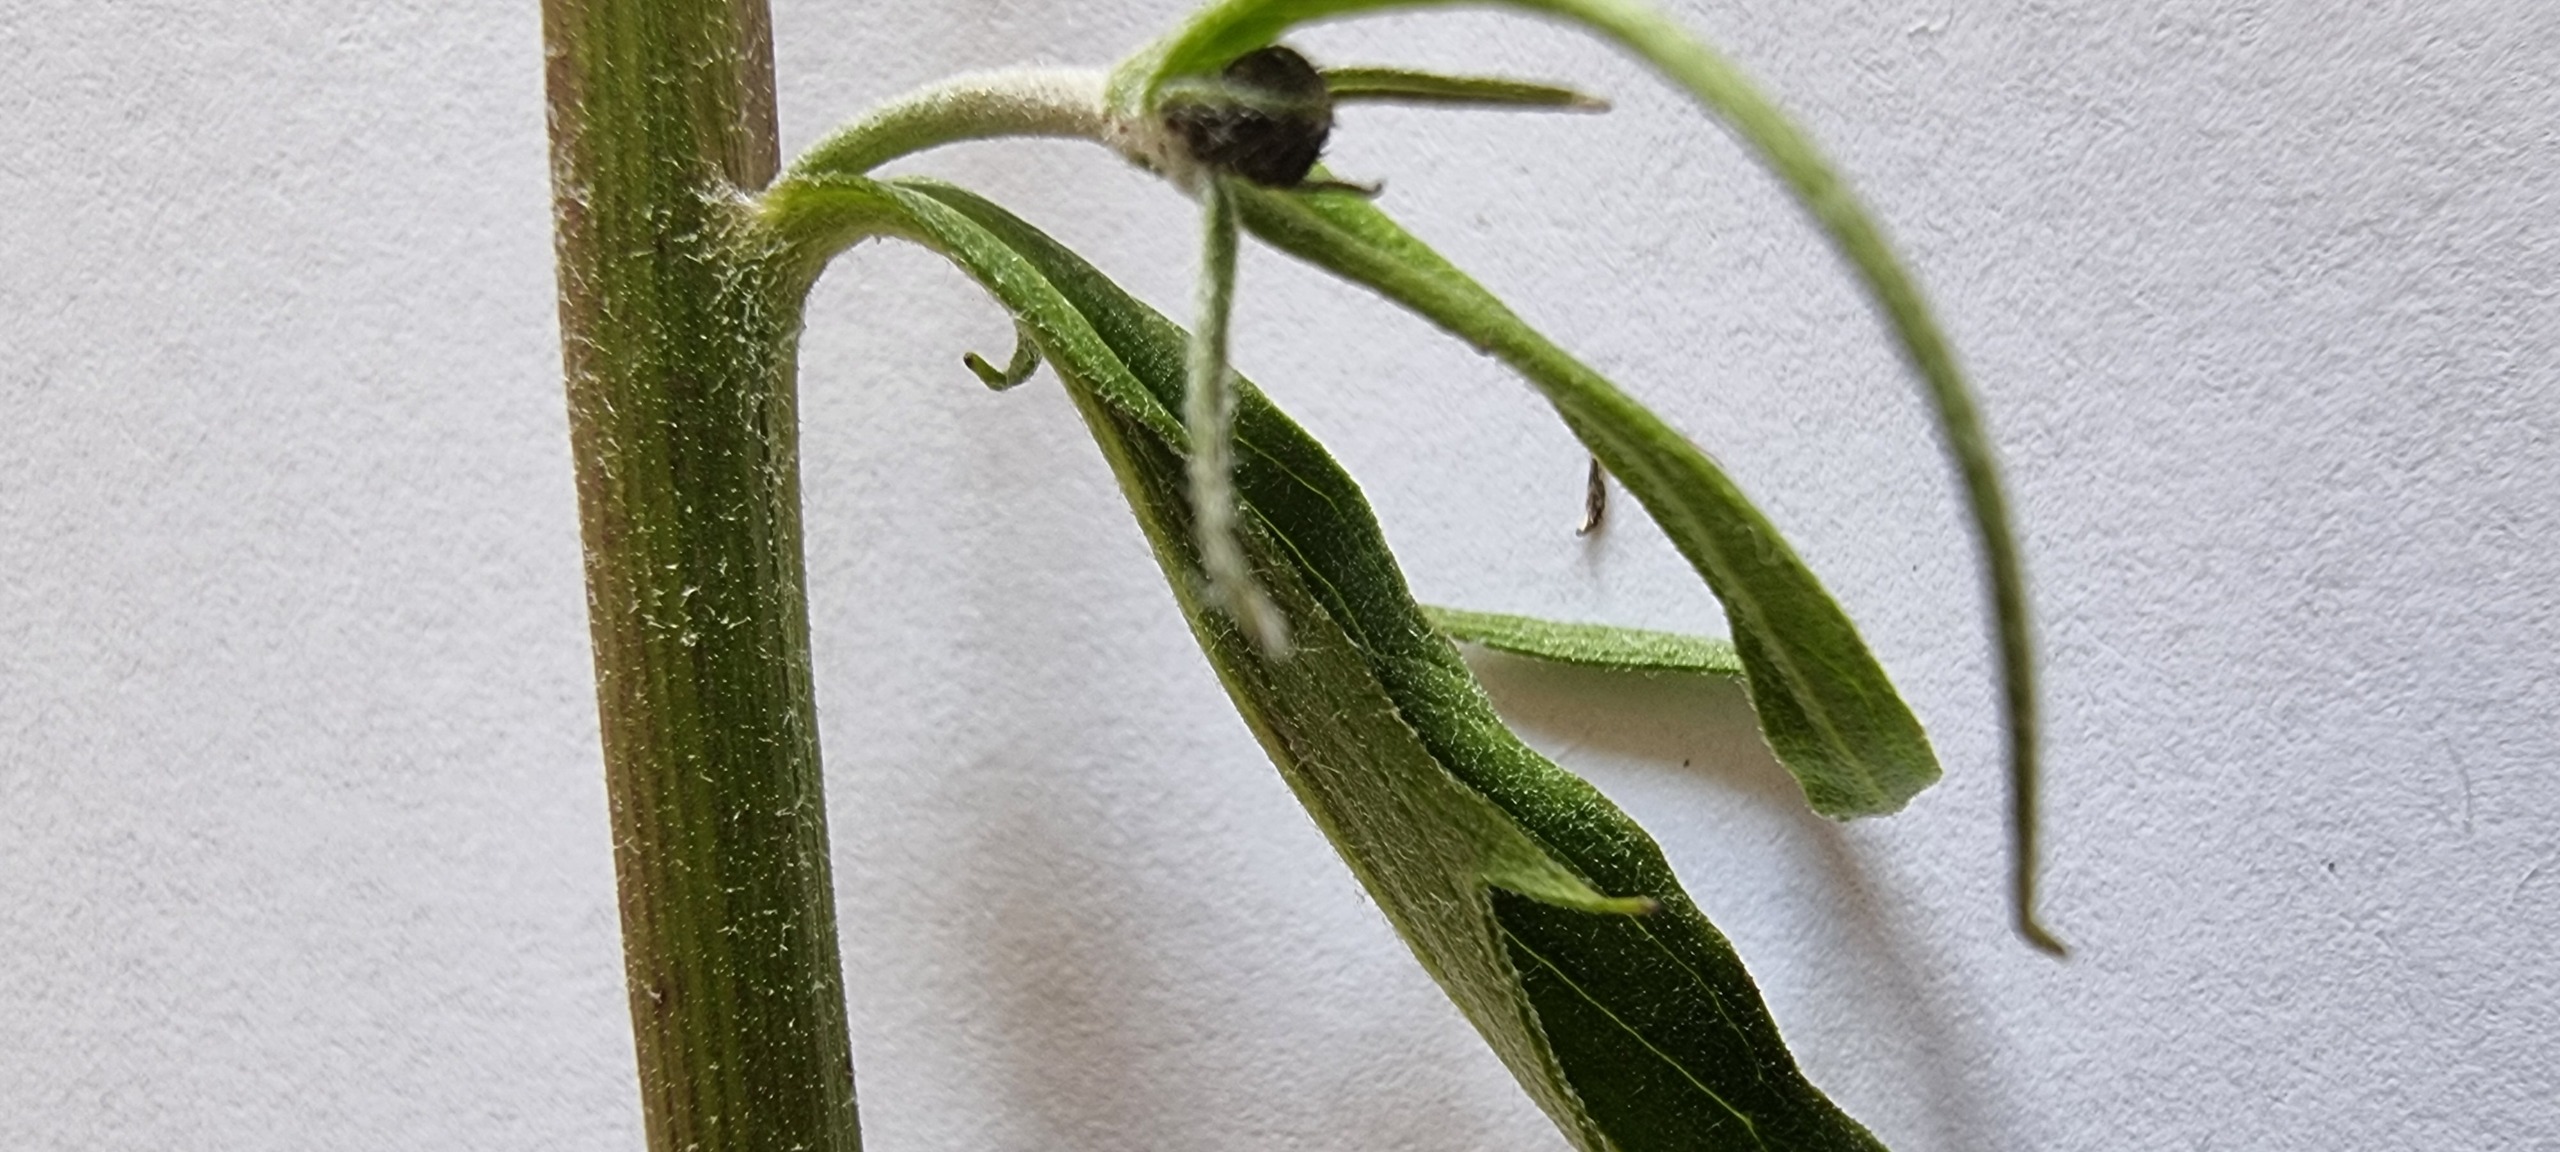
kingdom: Plantae
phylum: Tracheophyta
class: Magnoliopsida
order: Asterales
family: Asteraceae
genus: Hieracium
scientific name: Hieracium rebildense
